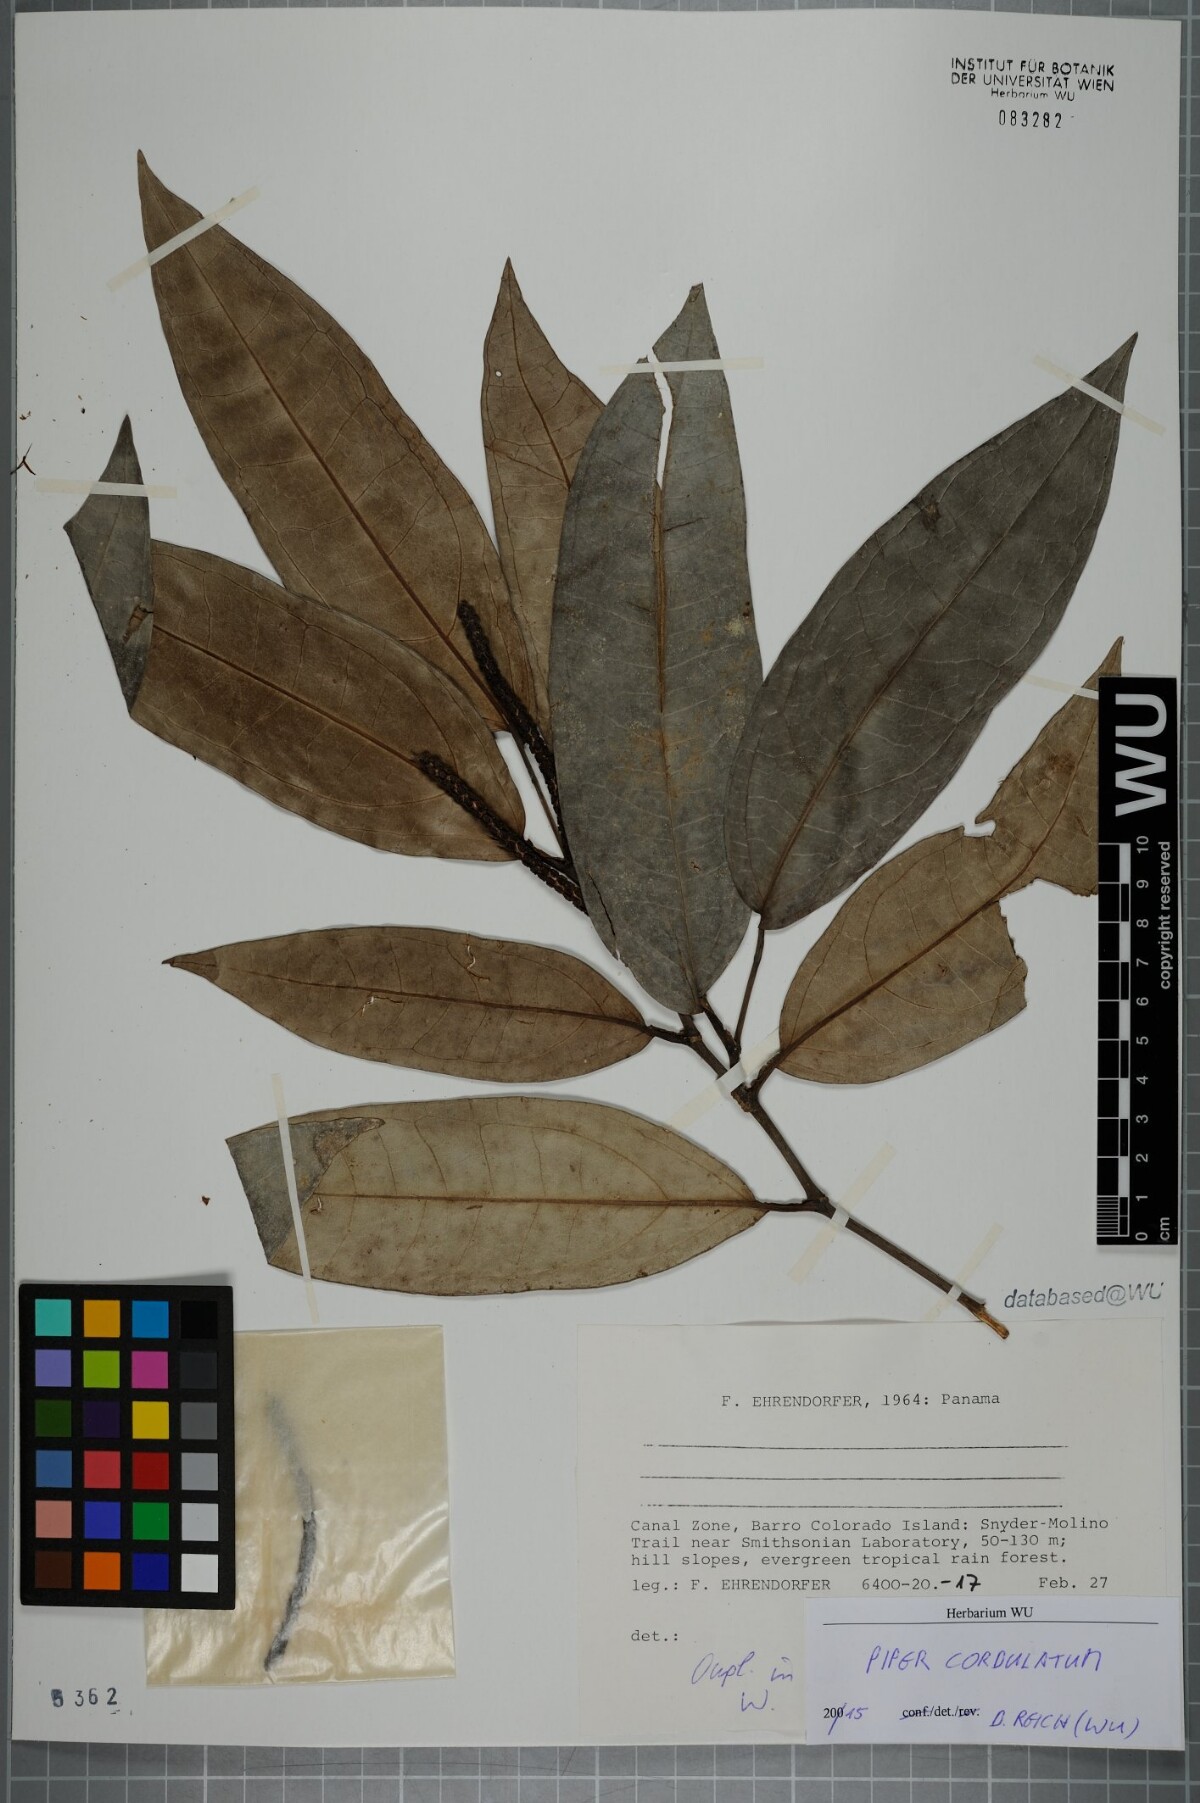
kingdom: Plantae
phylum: Tracheophyta
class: Magnoliopsida
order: Piperales
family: Piperaceae
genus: Piper
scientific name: Piper trinervium
